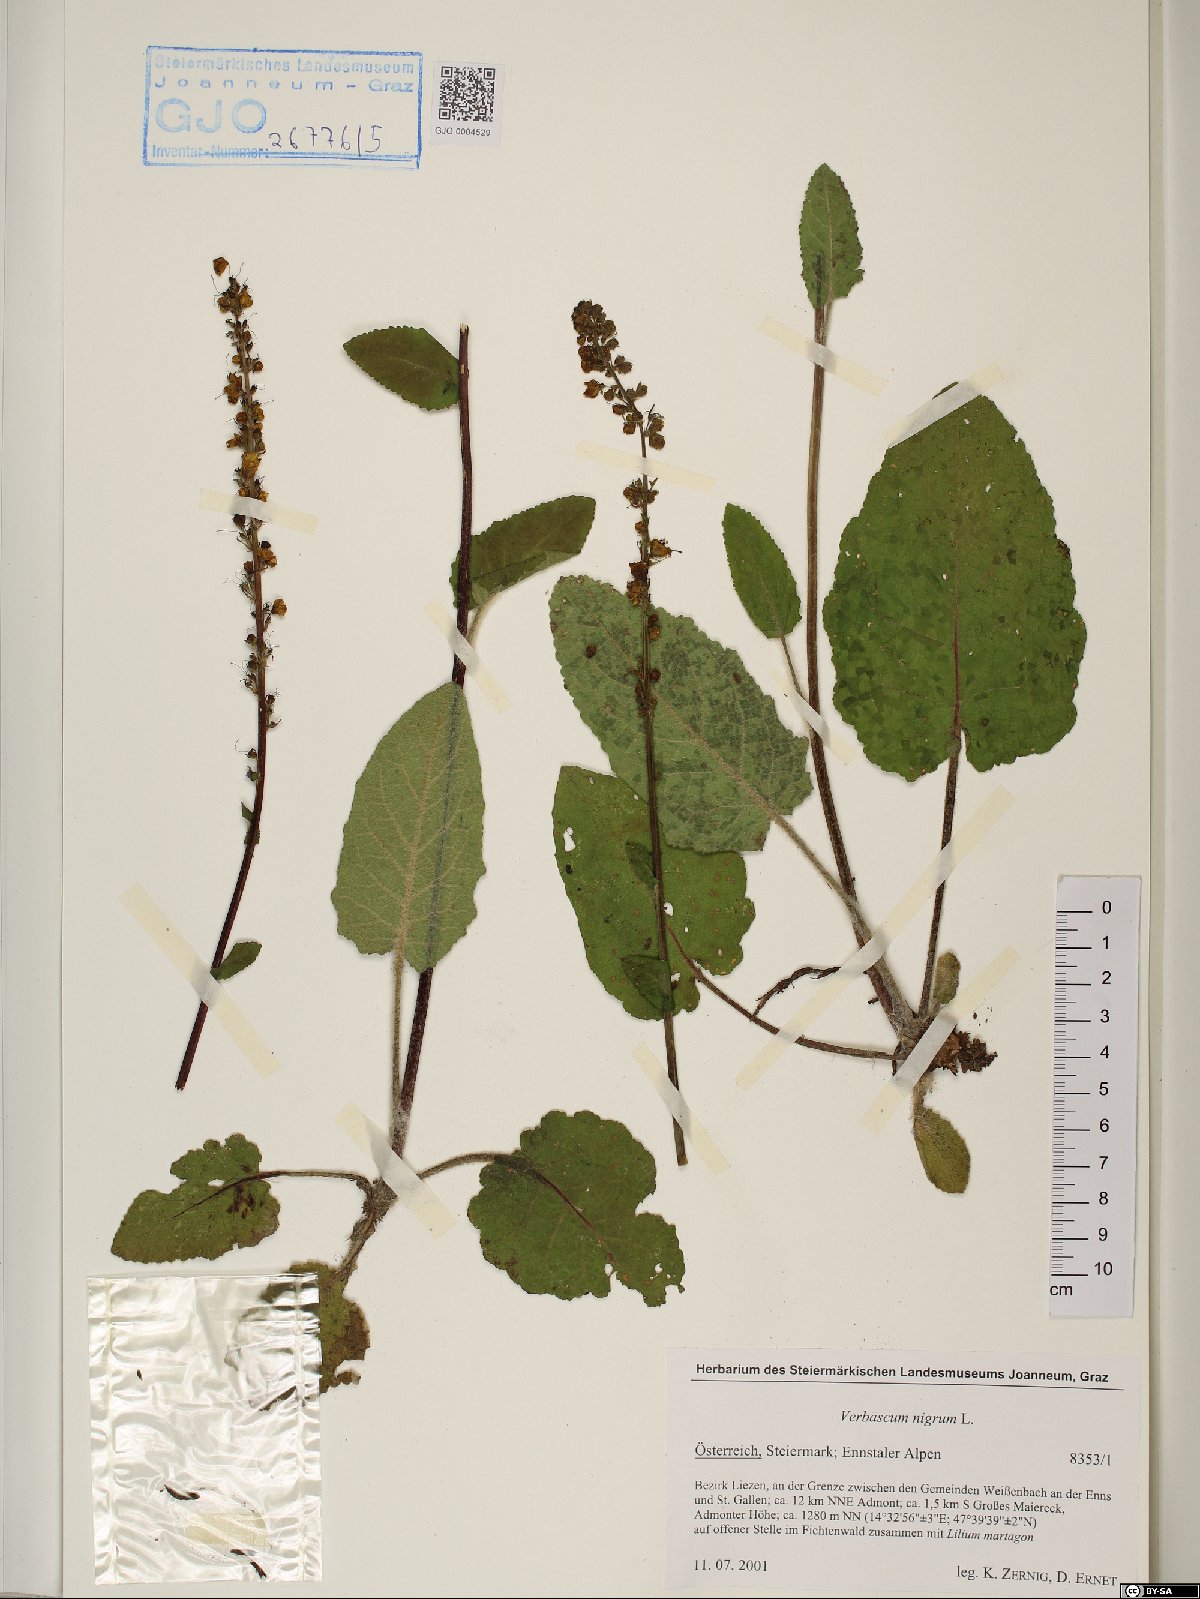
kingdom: Plantae
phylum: Tracheophyta
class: Magnoliopsida
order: Lamiales
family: Scrophulariaceae
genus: Verbascum
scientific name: Verbascum nigrum
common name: Dark mullein
